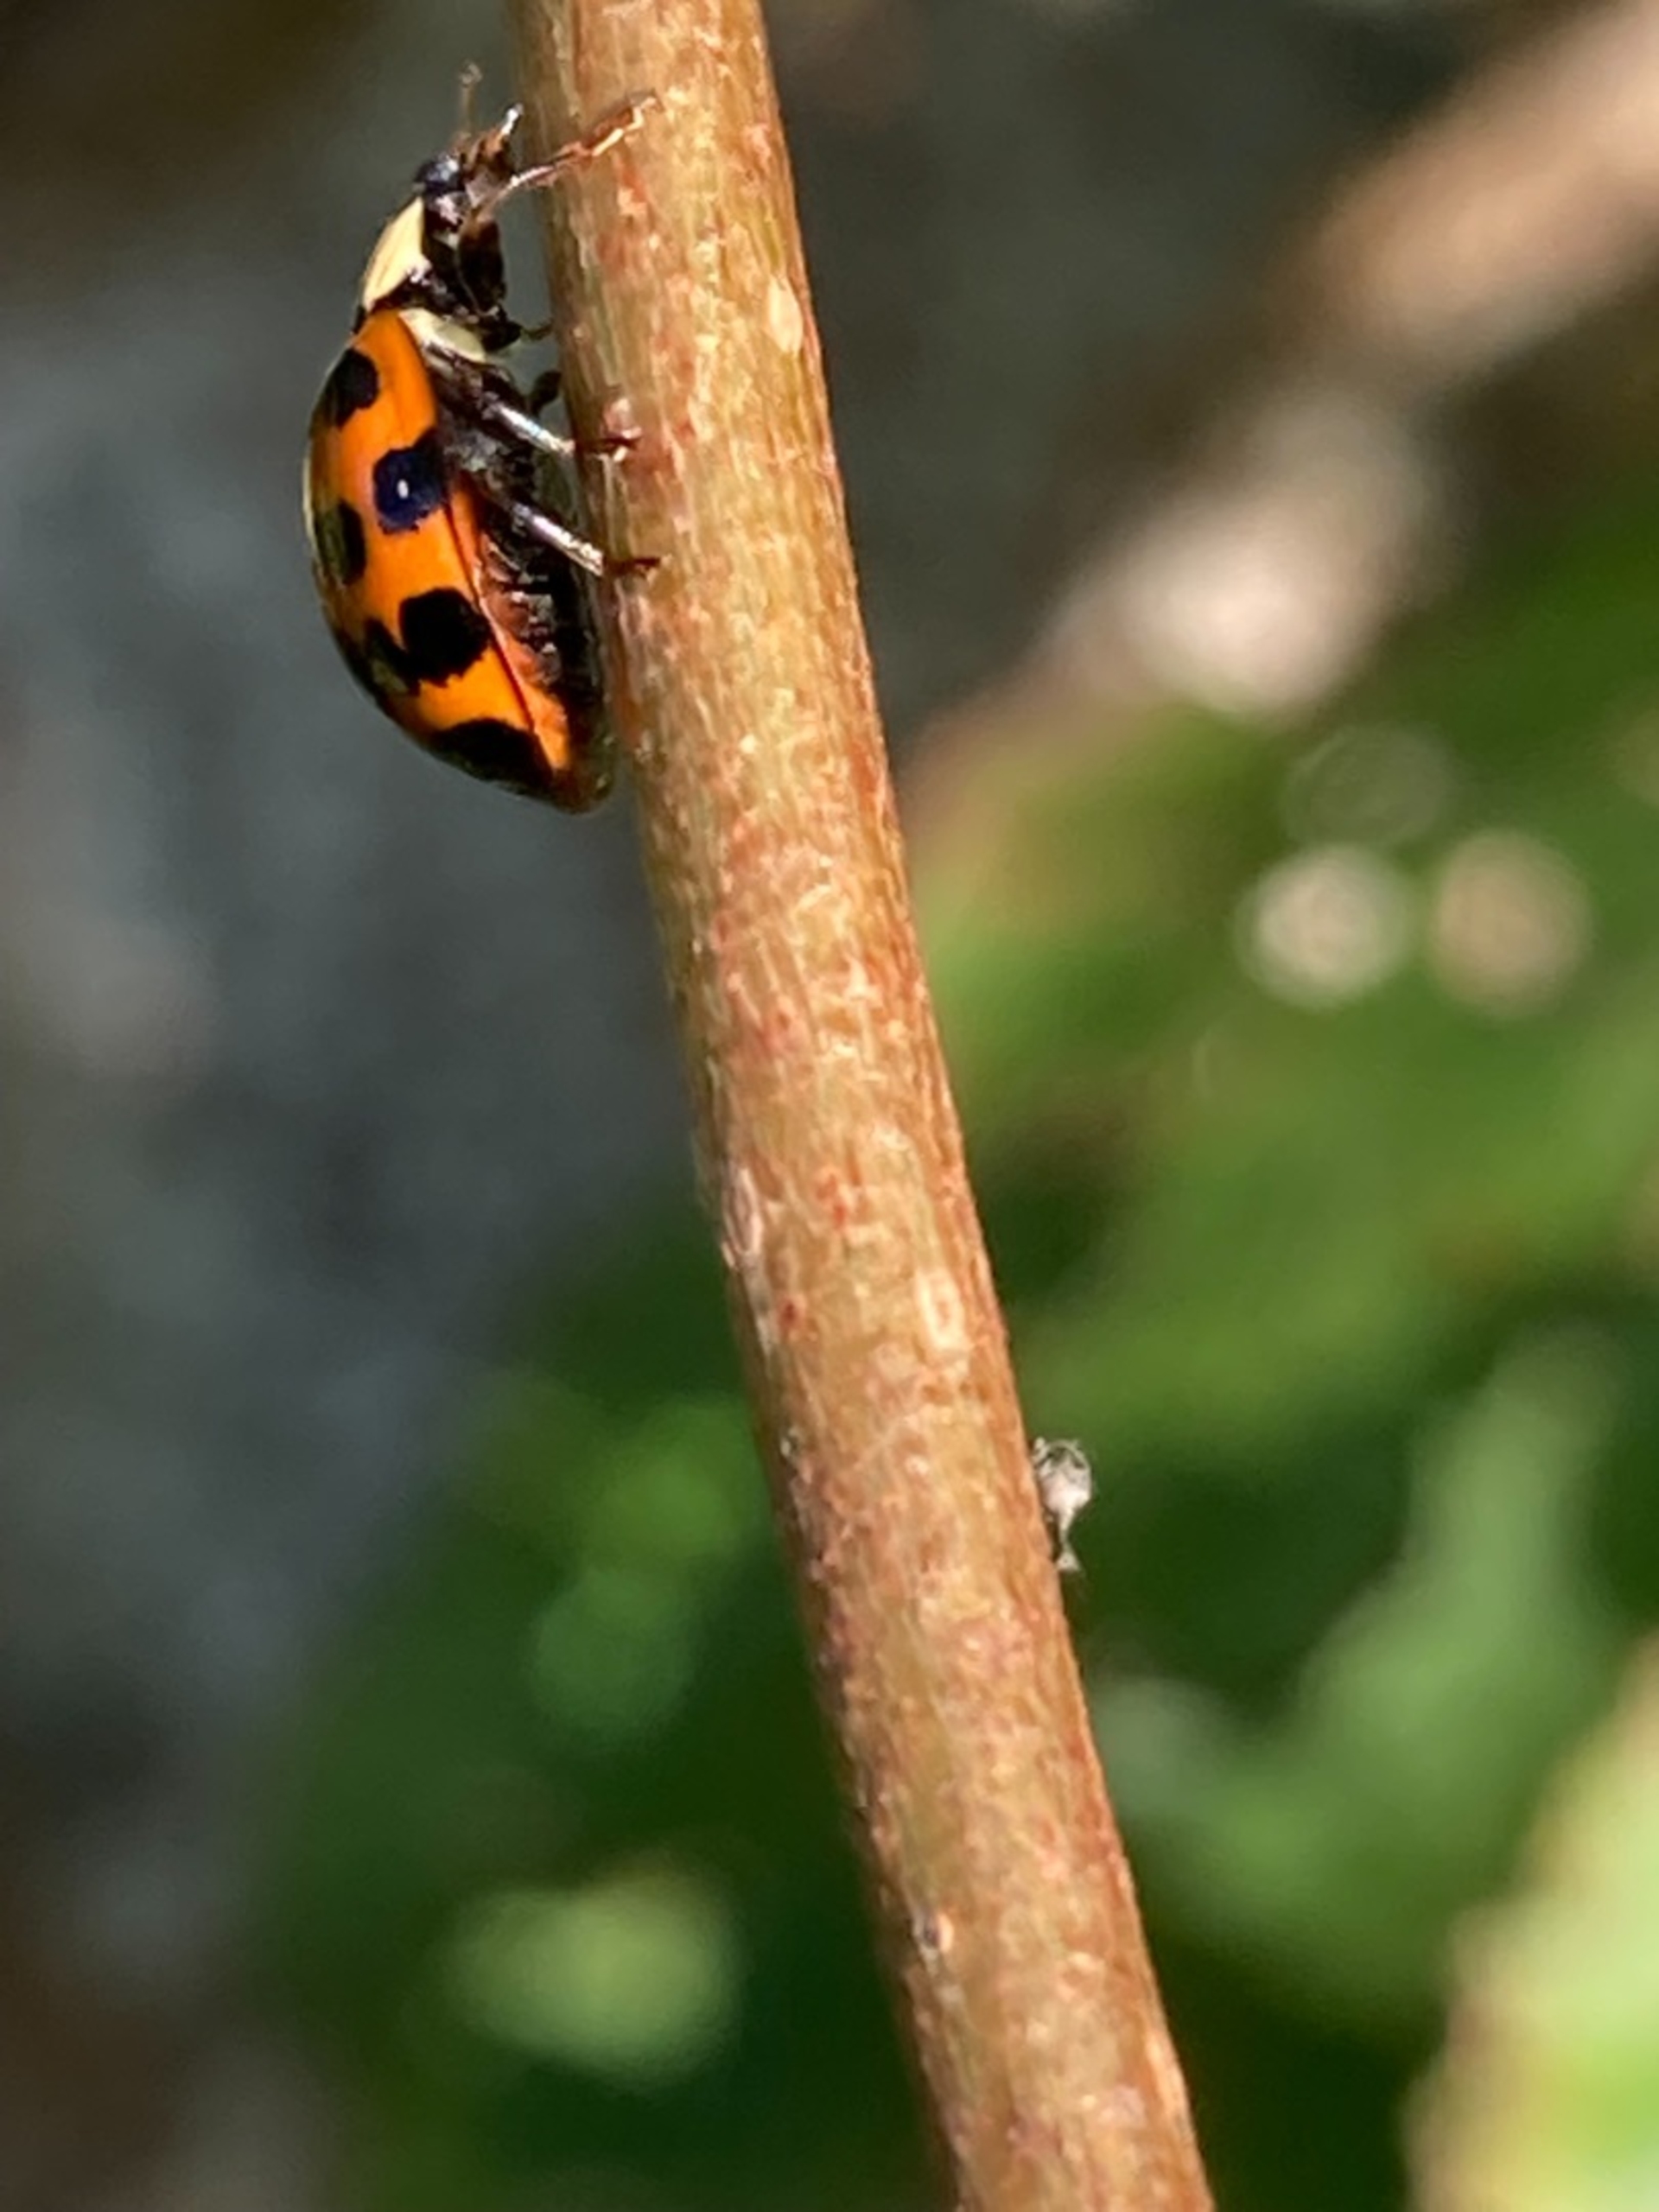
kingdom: Animalia
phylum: Arthropoda
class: Insecta
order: Coleoptera
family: Coccinellidae
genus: Harmonia
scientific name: Harmonia axyridis
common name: Harlekinmariehøne
